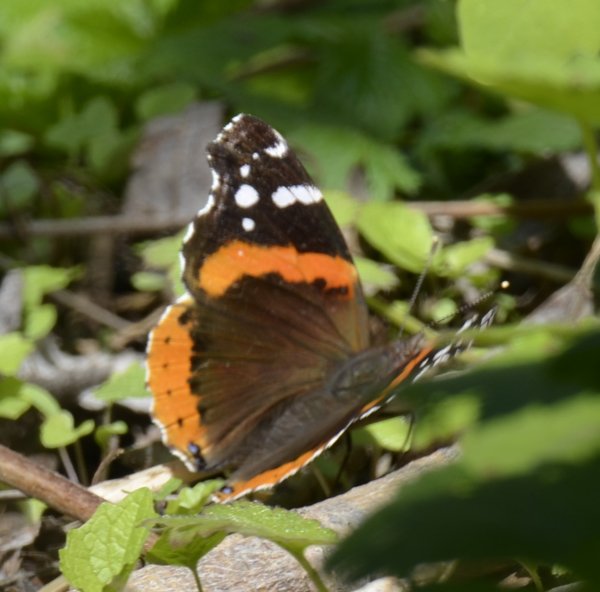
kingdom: Animalia
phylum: Arthropoda
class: Insecta
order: Lepidoptera
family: Nymphalidae
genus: Vanessa
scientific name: Vanessa atalanta
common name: Red Admiral
